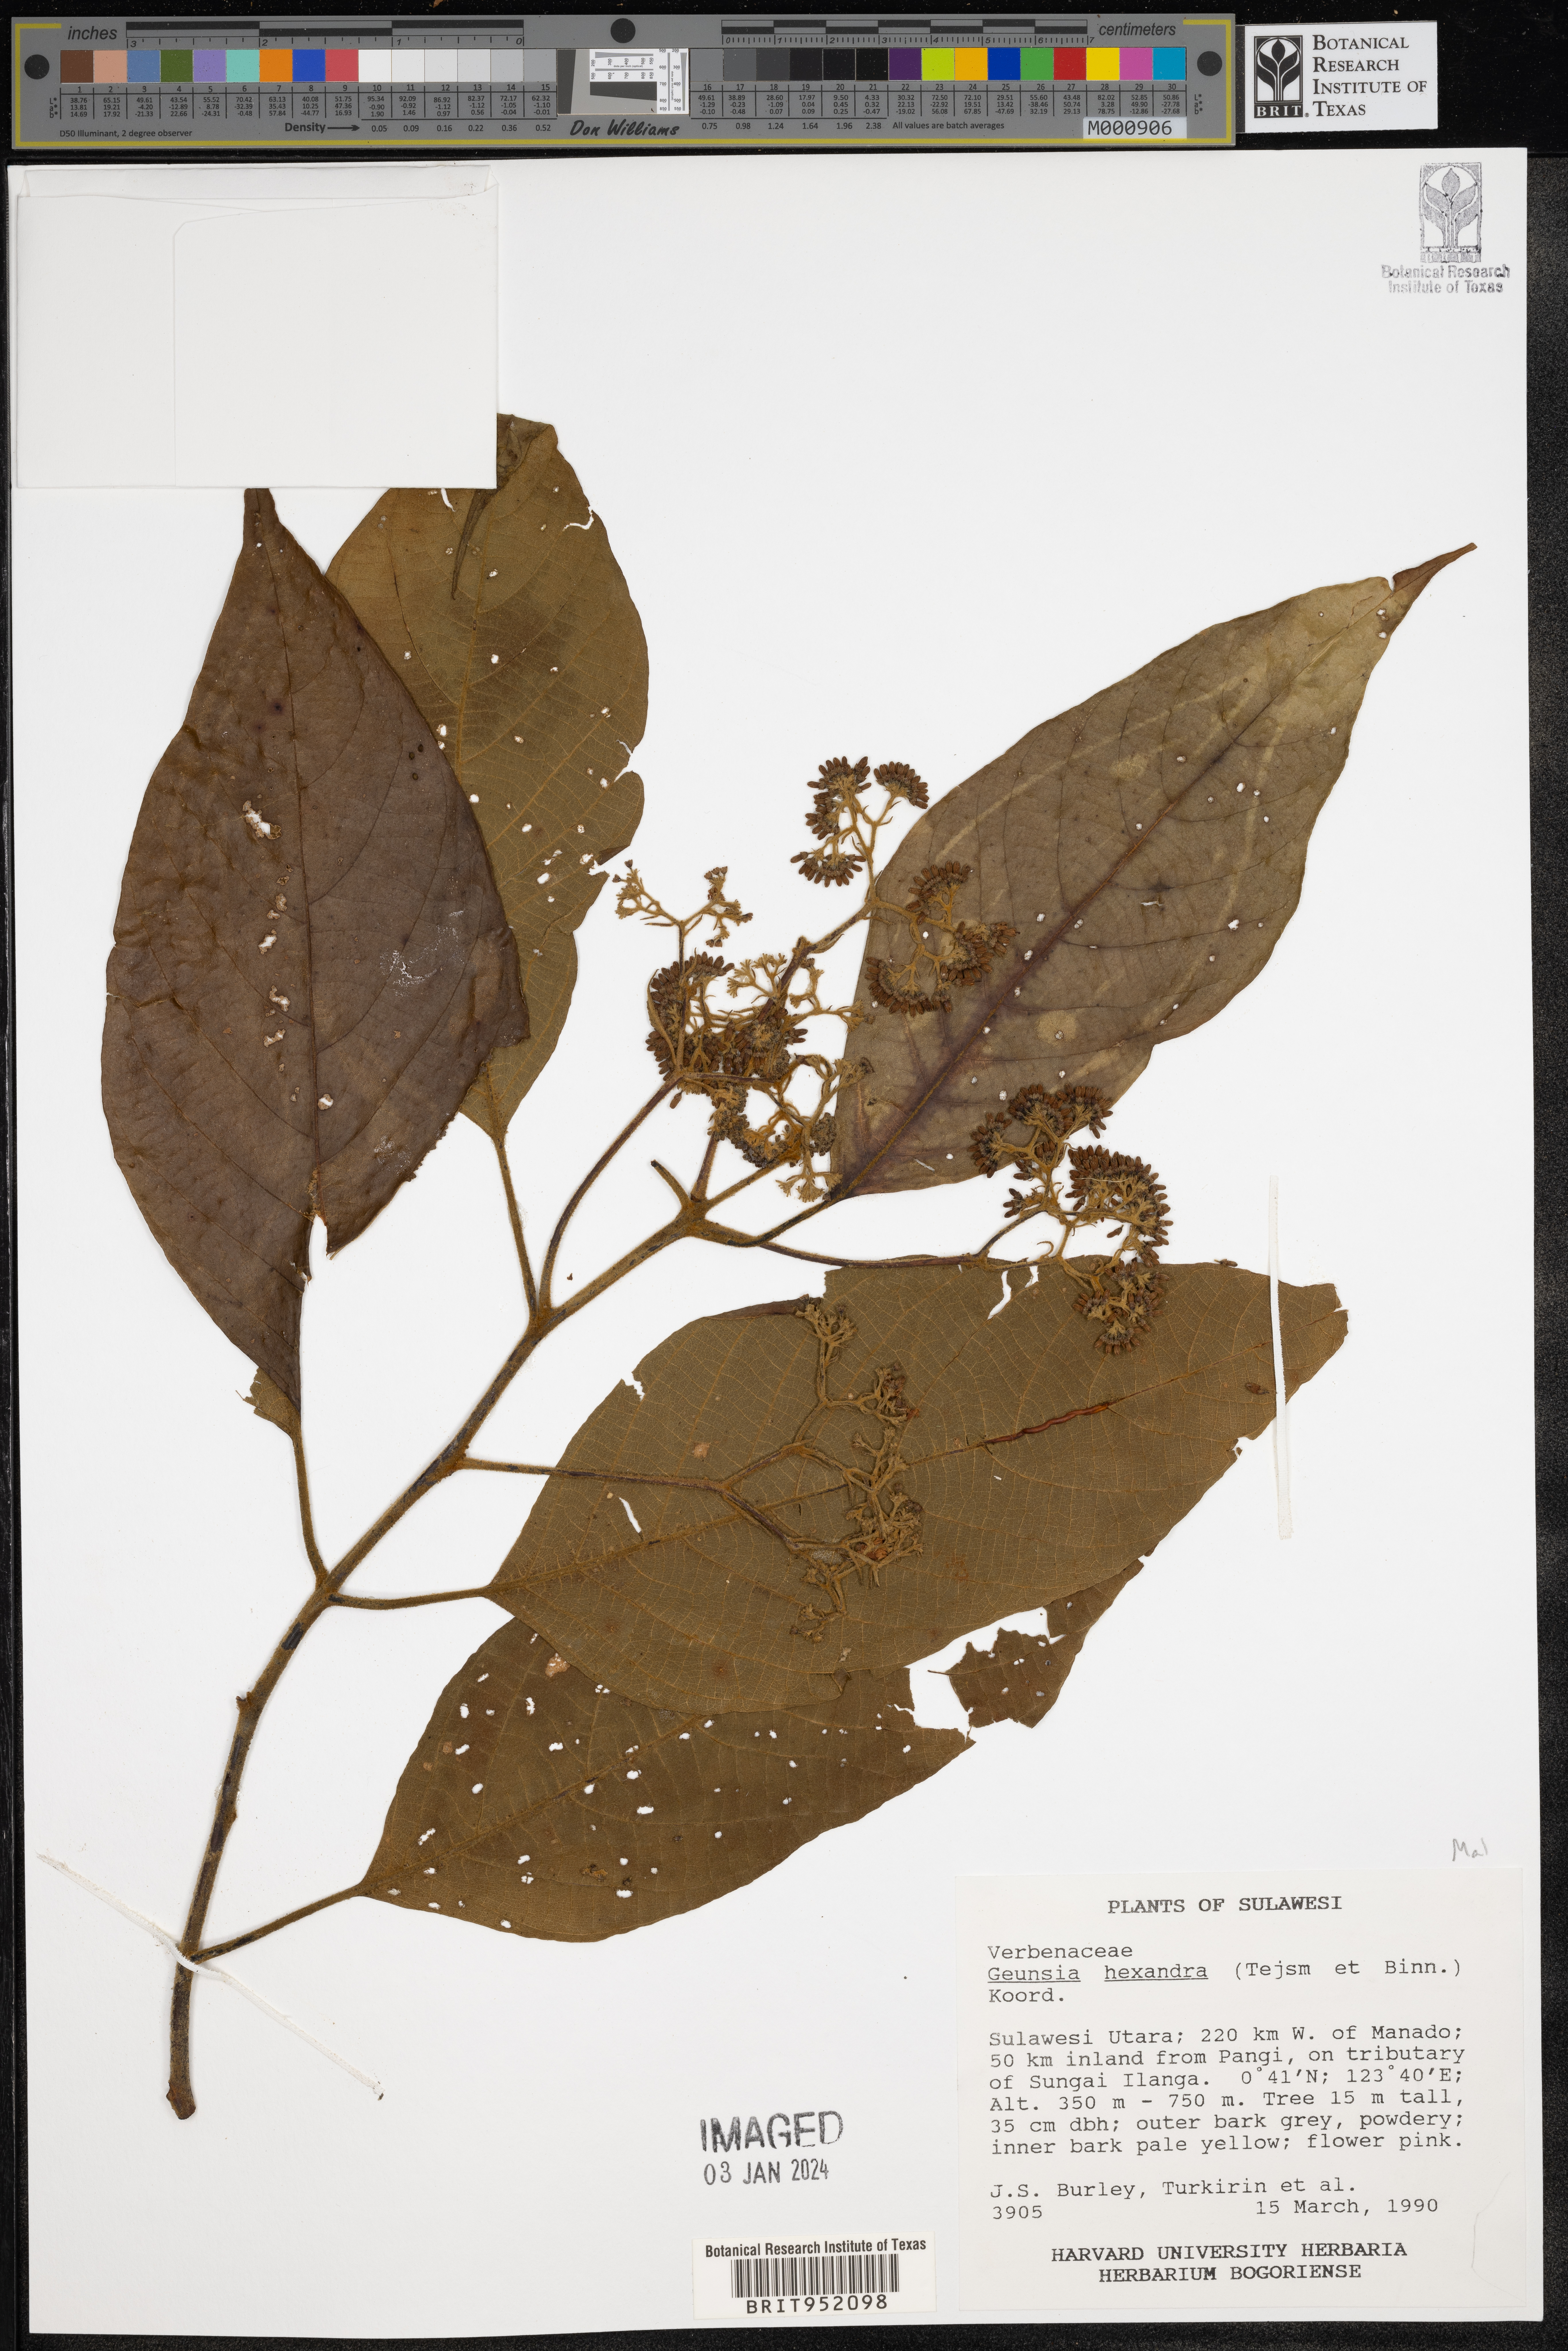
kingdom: Plantae
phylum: Tracheophyta
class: Magnoliopsida
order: Lamiales
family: Lamiaceae
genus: Callicarpa
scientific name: Callicarpa
